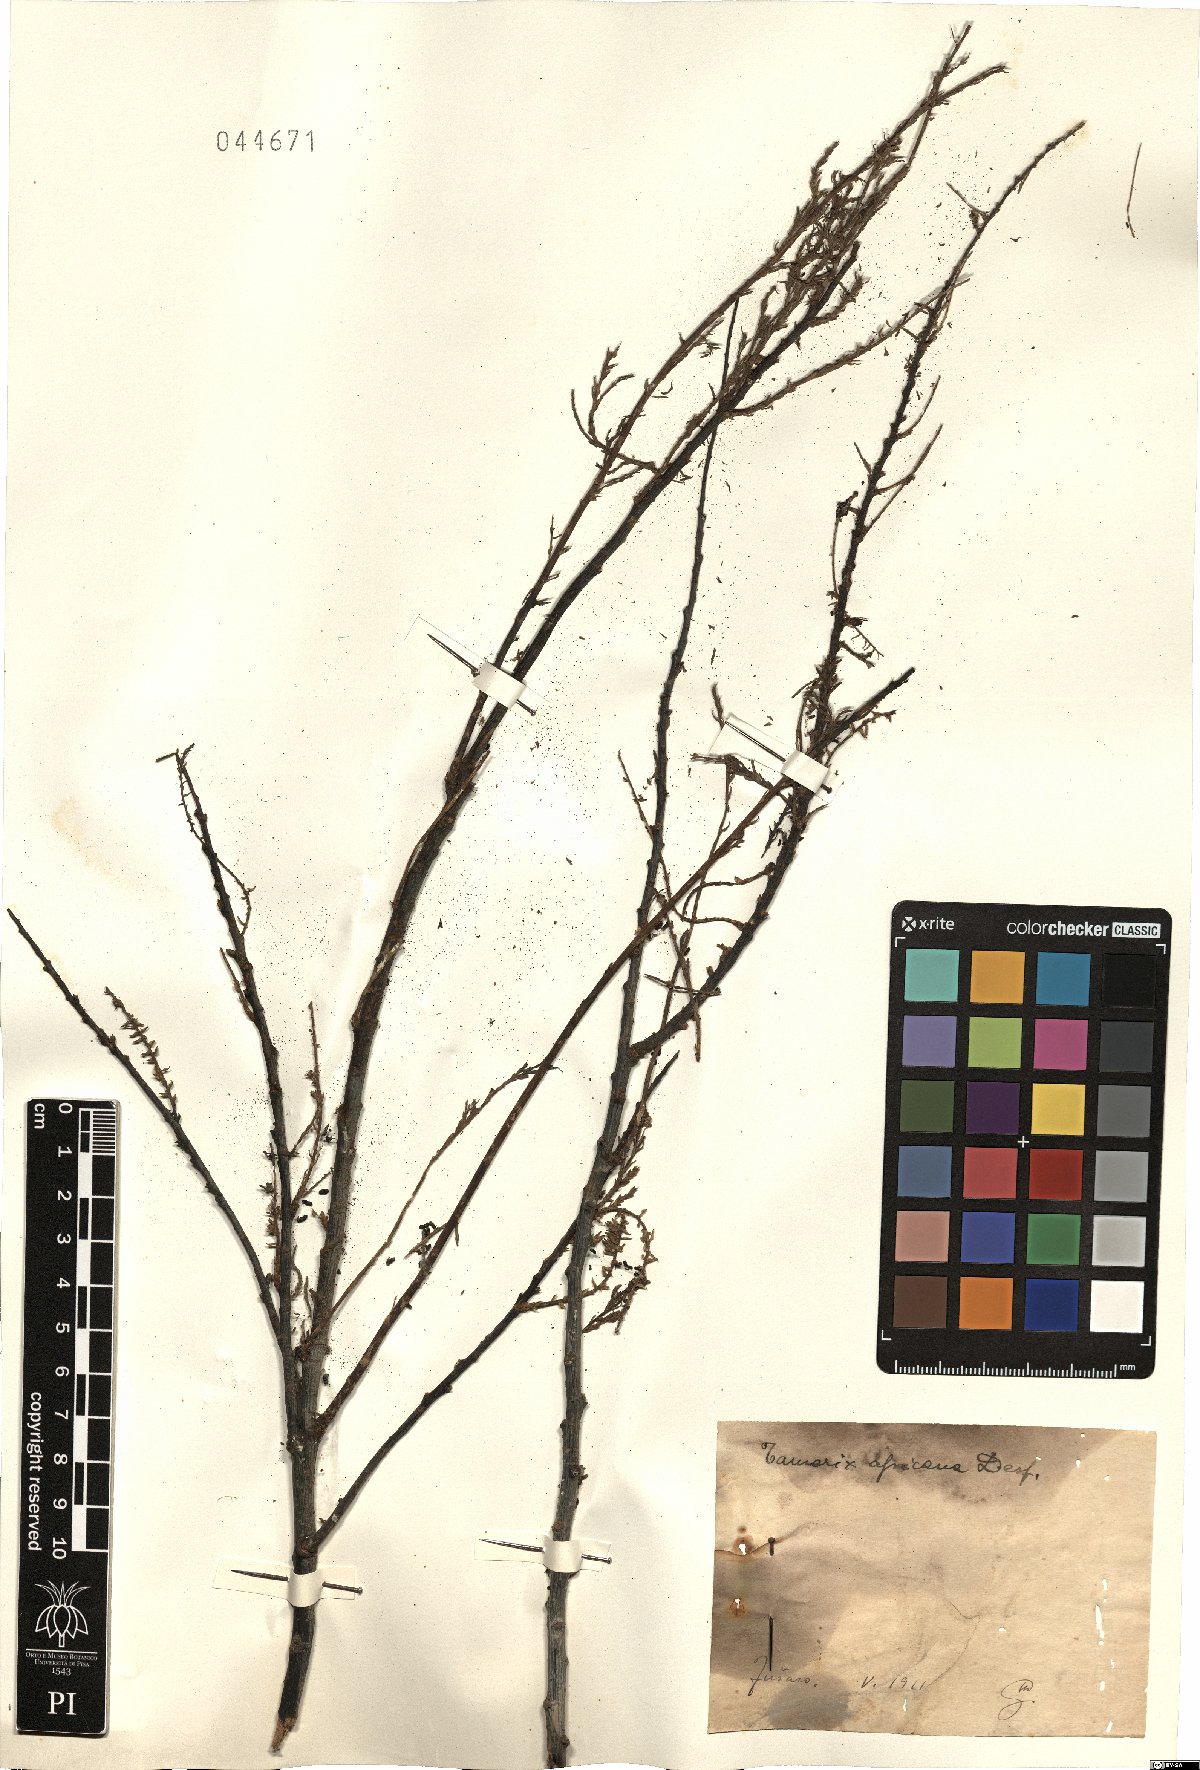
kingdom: Plantae
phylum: Tracheophyta
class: Magnoliopsida
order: Caryophyllales
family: Tamaricaceae
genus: Tamarix
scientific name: Tamarix africana
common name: African tamarisk
